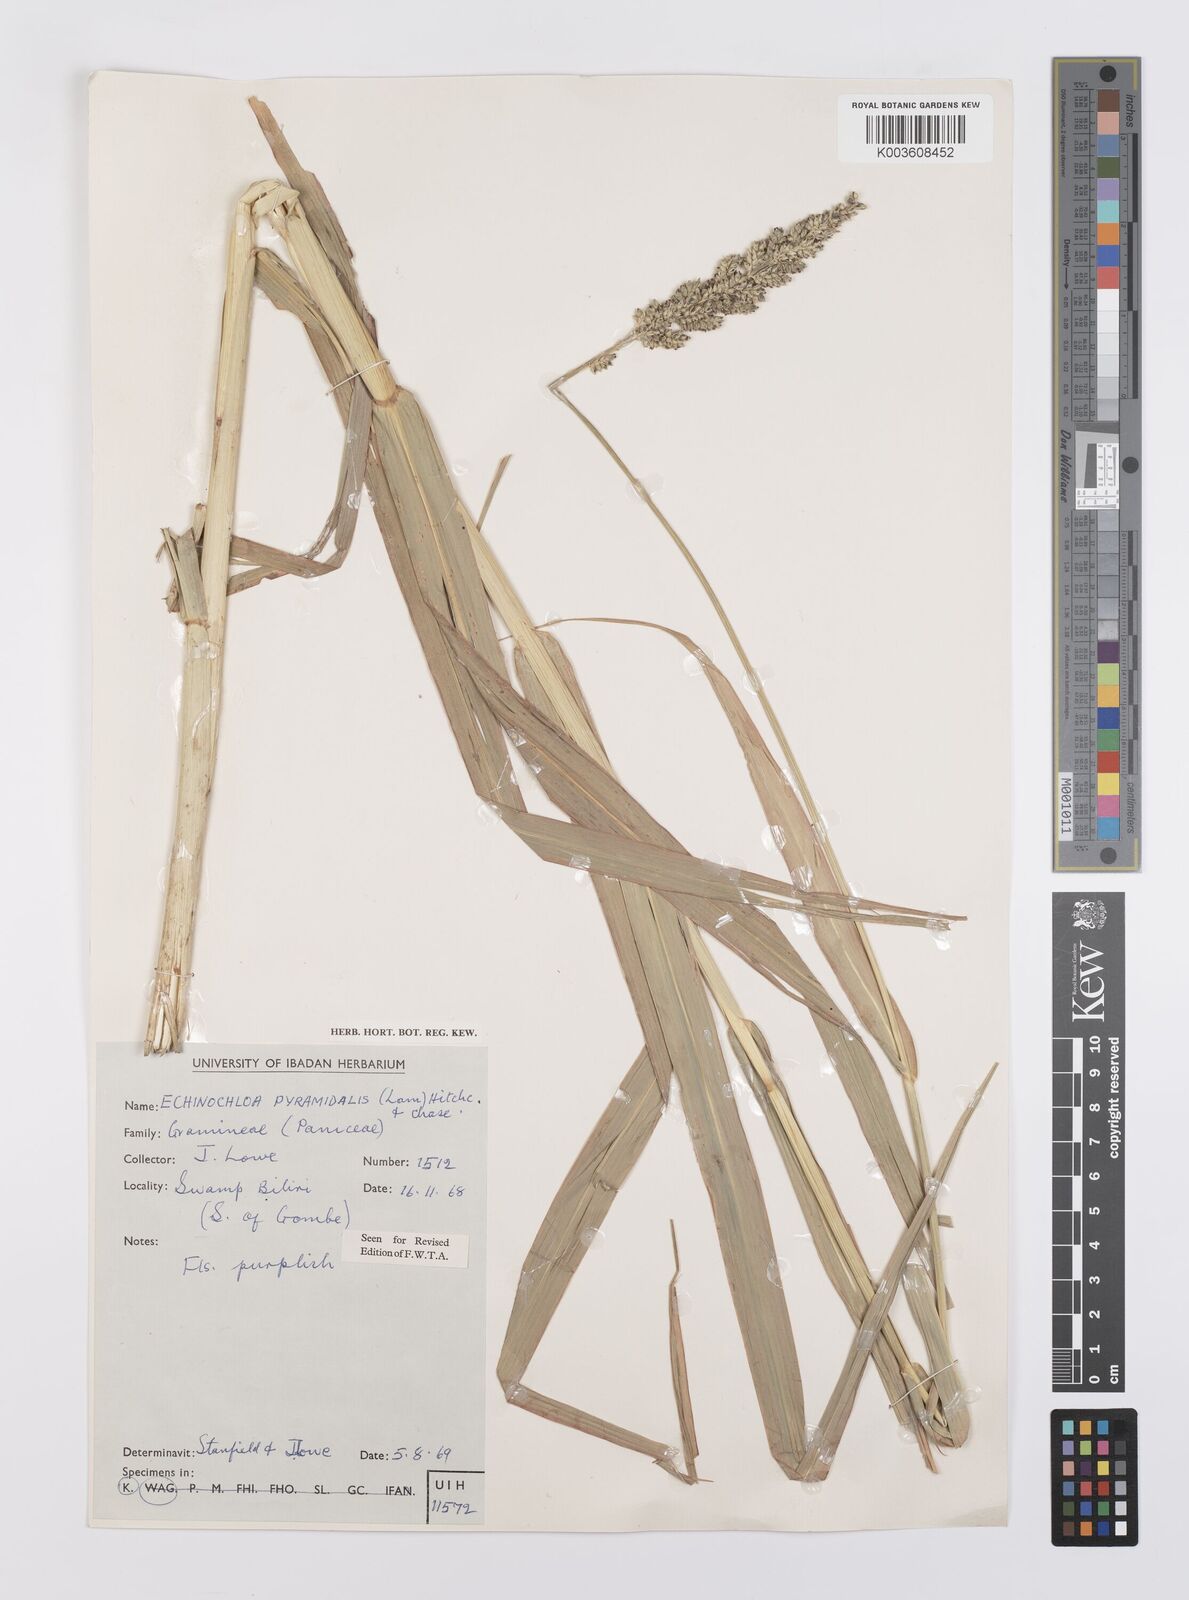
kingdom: Plantae
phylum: Tracheophyta
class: Liliopsida
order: Poales
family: Poaceae
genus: Echinochloa
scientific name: Echinochloa pyramidalis
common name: Antelope grass
